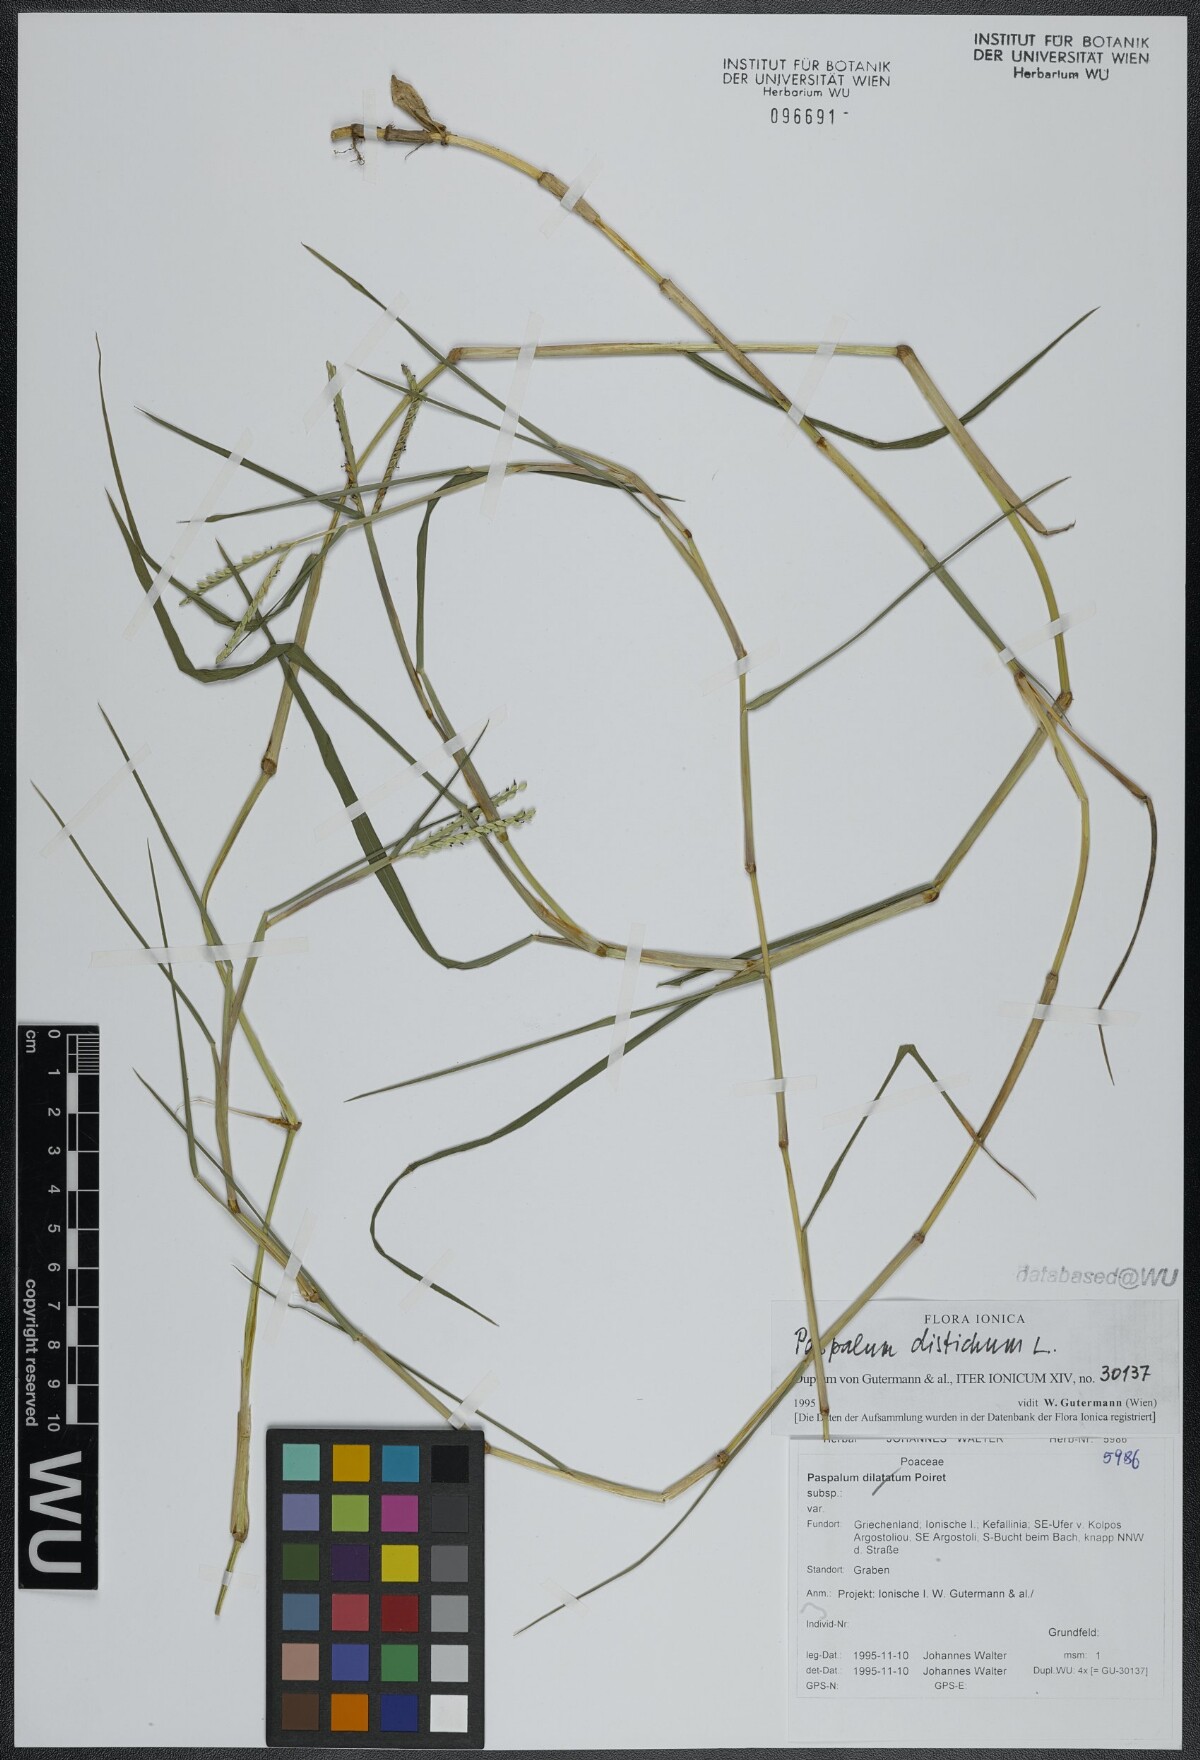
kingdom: Plantae
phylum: Tracheophyta
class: Liliopsida
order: Poales
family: Poaceae
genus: Paspalum
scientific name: Paspalum distichum
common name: Knotgrass
